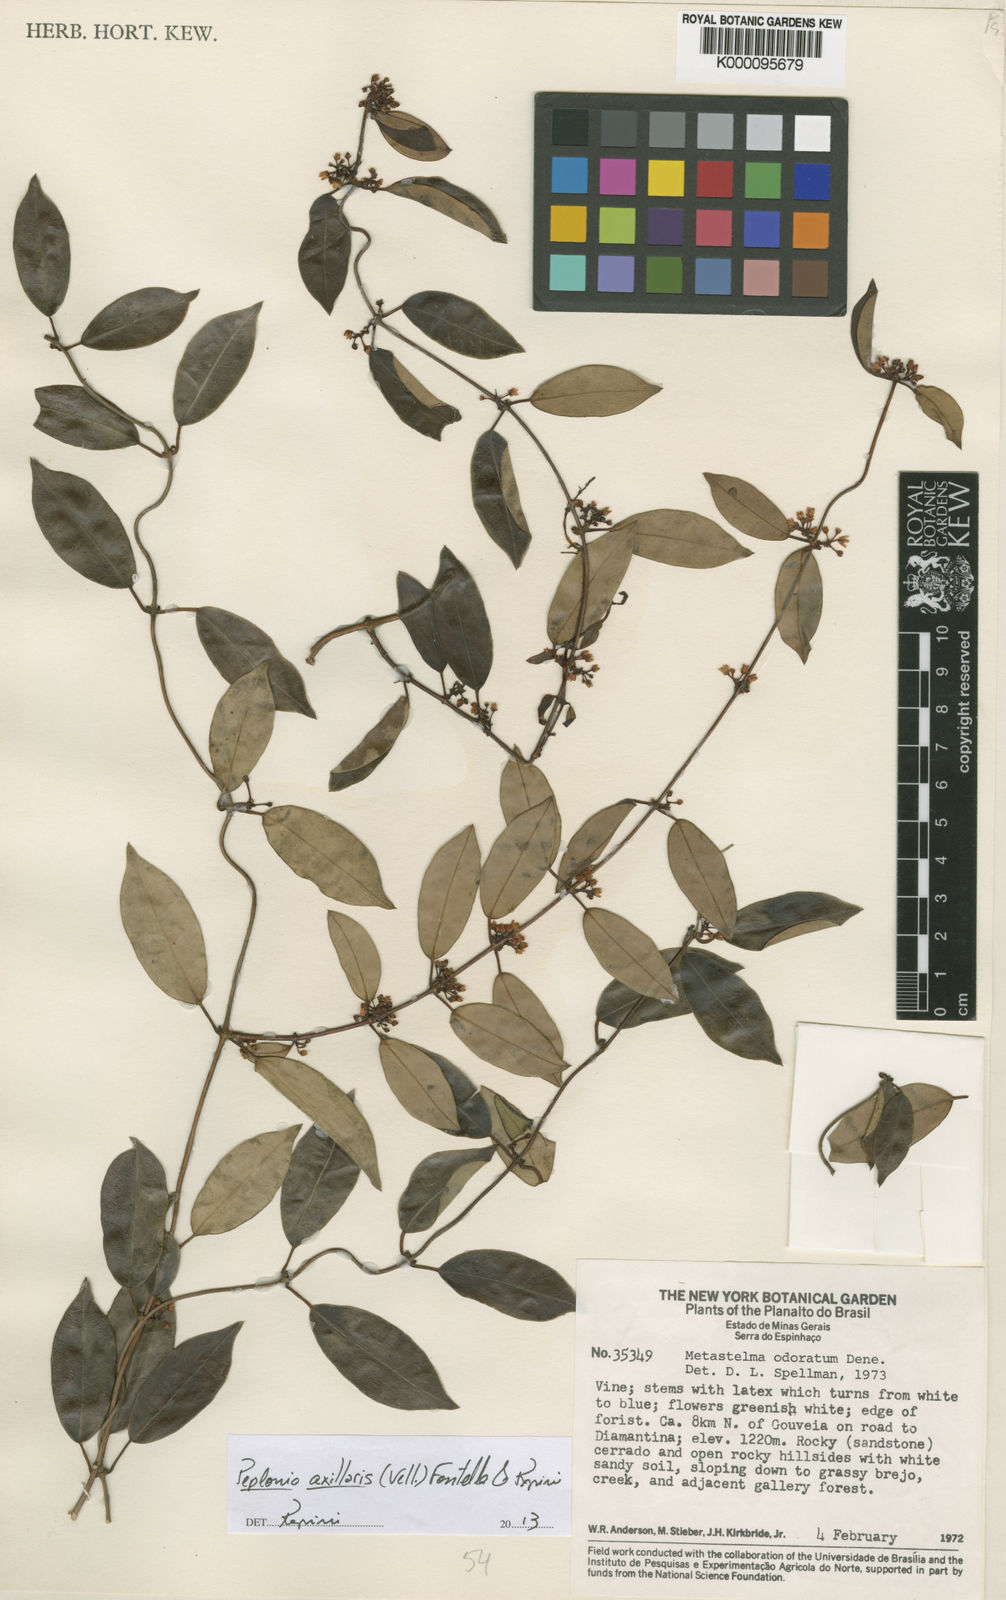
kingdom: Plantae
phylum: Tracheophyta
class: Magnoliopsida
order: Gentianales
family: Apocynaceae
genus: Peplonia
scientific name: Peplonia axillaris
